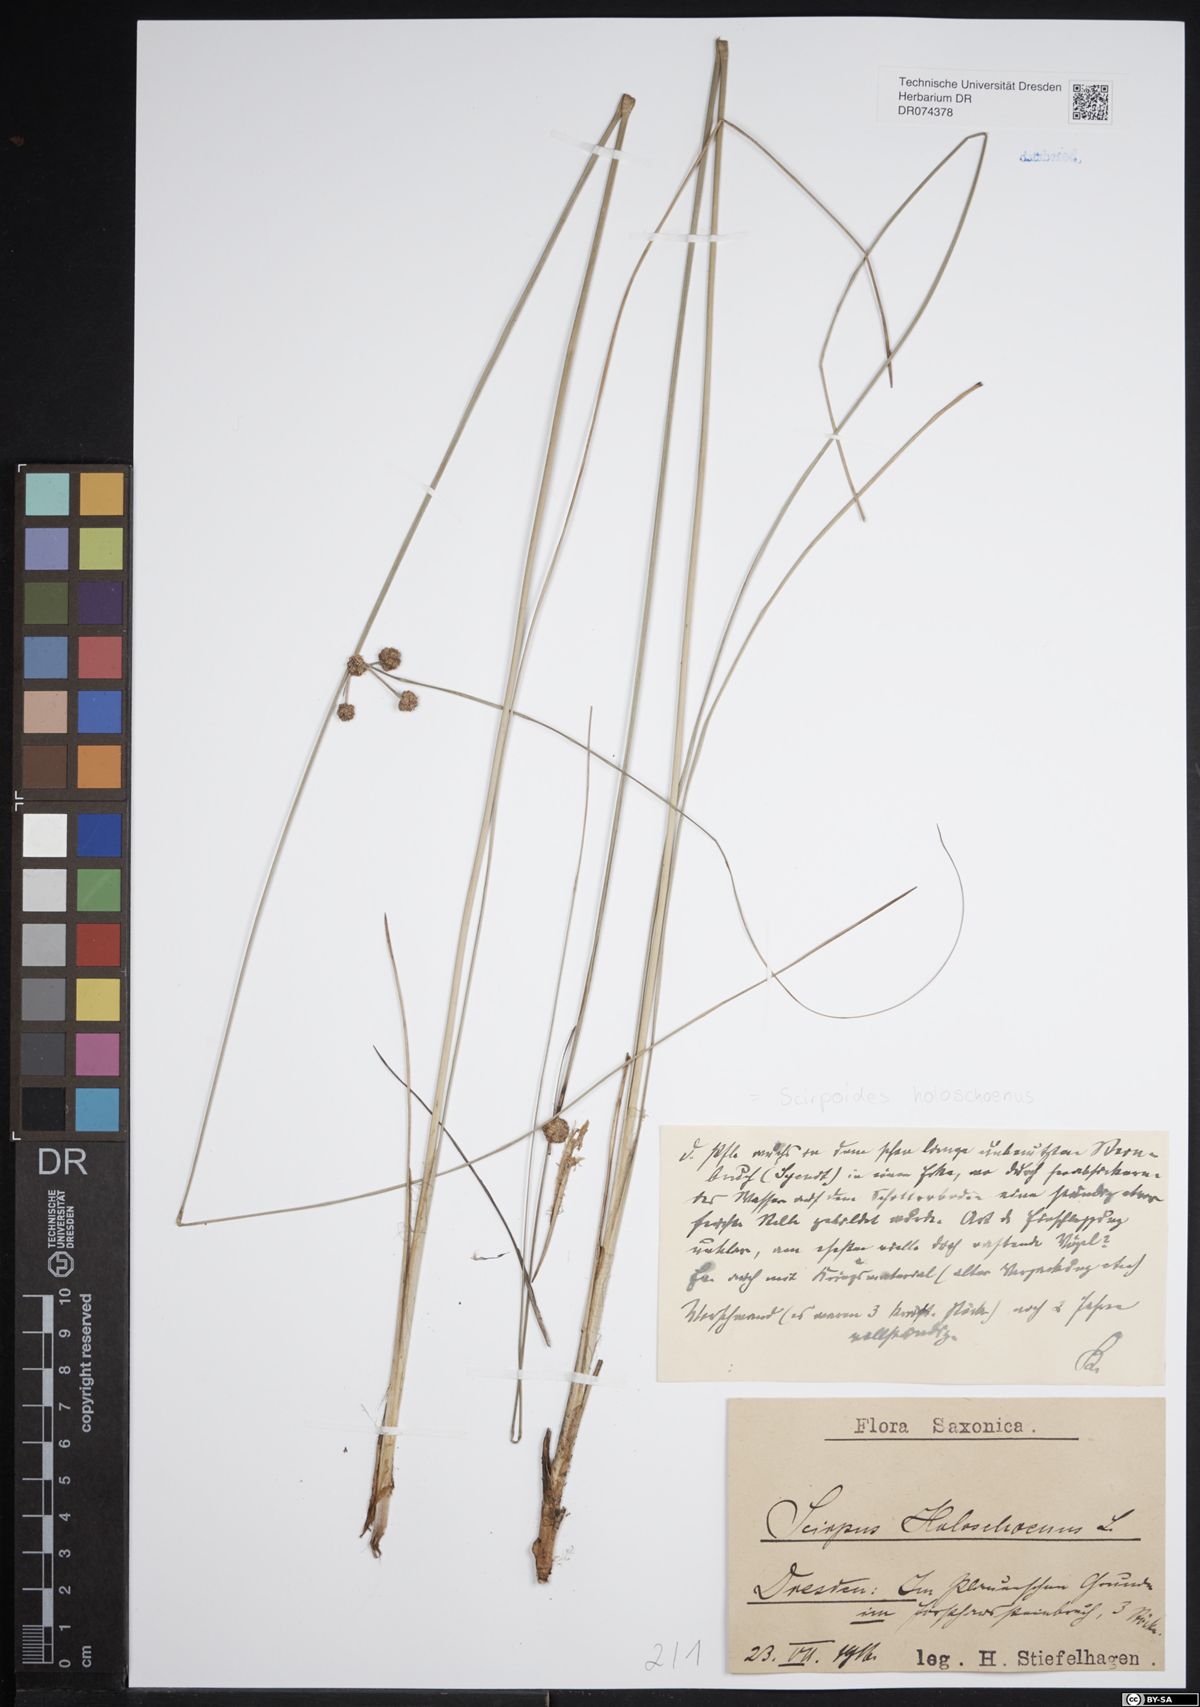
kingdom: Plantae
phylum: Tracheophyta
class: Liliopsida
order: Poales
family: Cyperaceae
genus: Scirpoides
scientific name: Scirpoides holoschoenus
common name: Round-headed club-rush
